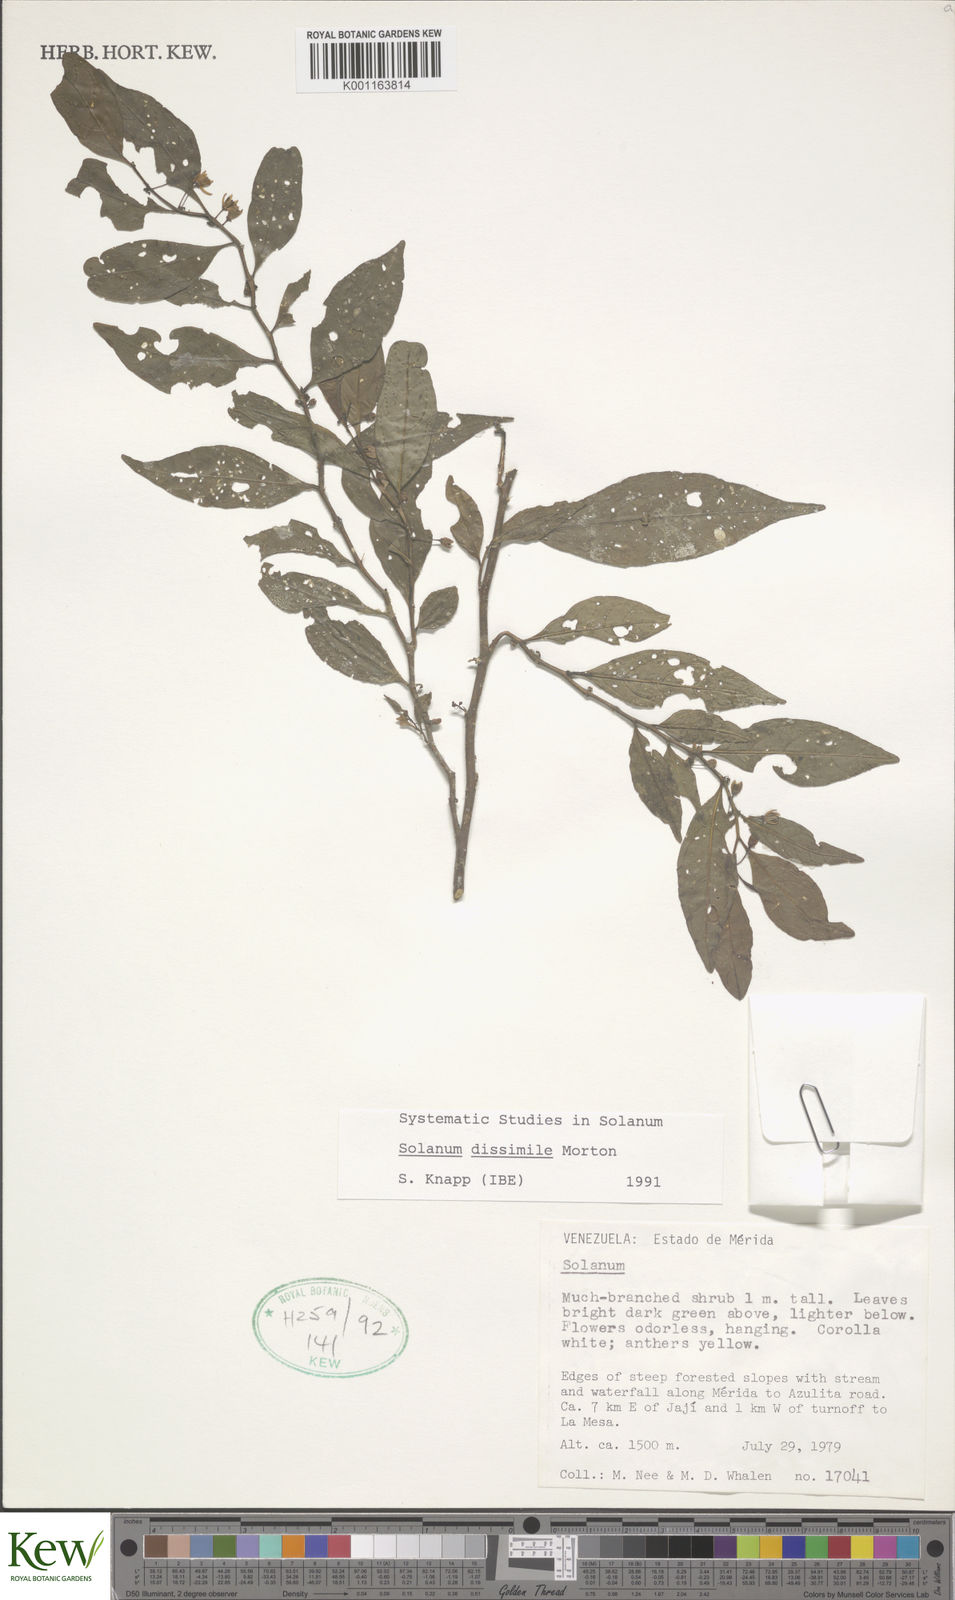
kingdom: Plantae
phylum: Tracheophyta
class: Magnoliopsida
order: Solanales
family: Solanaceae
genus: Solanum
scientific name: Solanum dissimile
